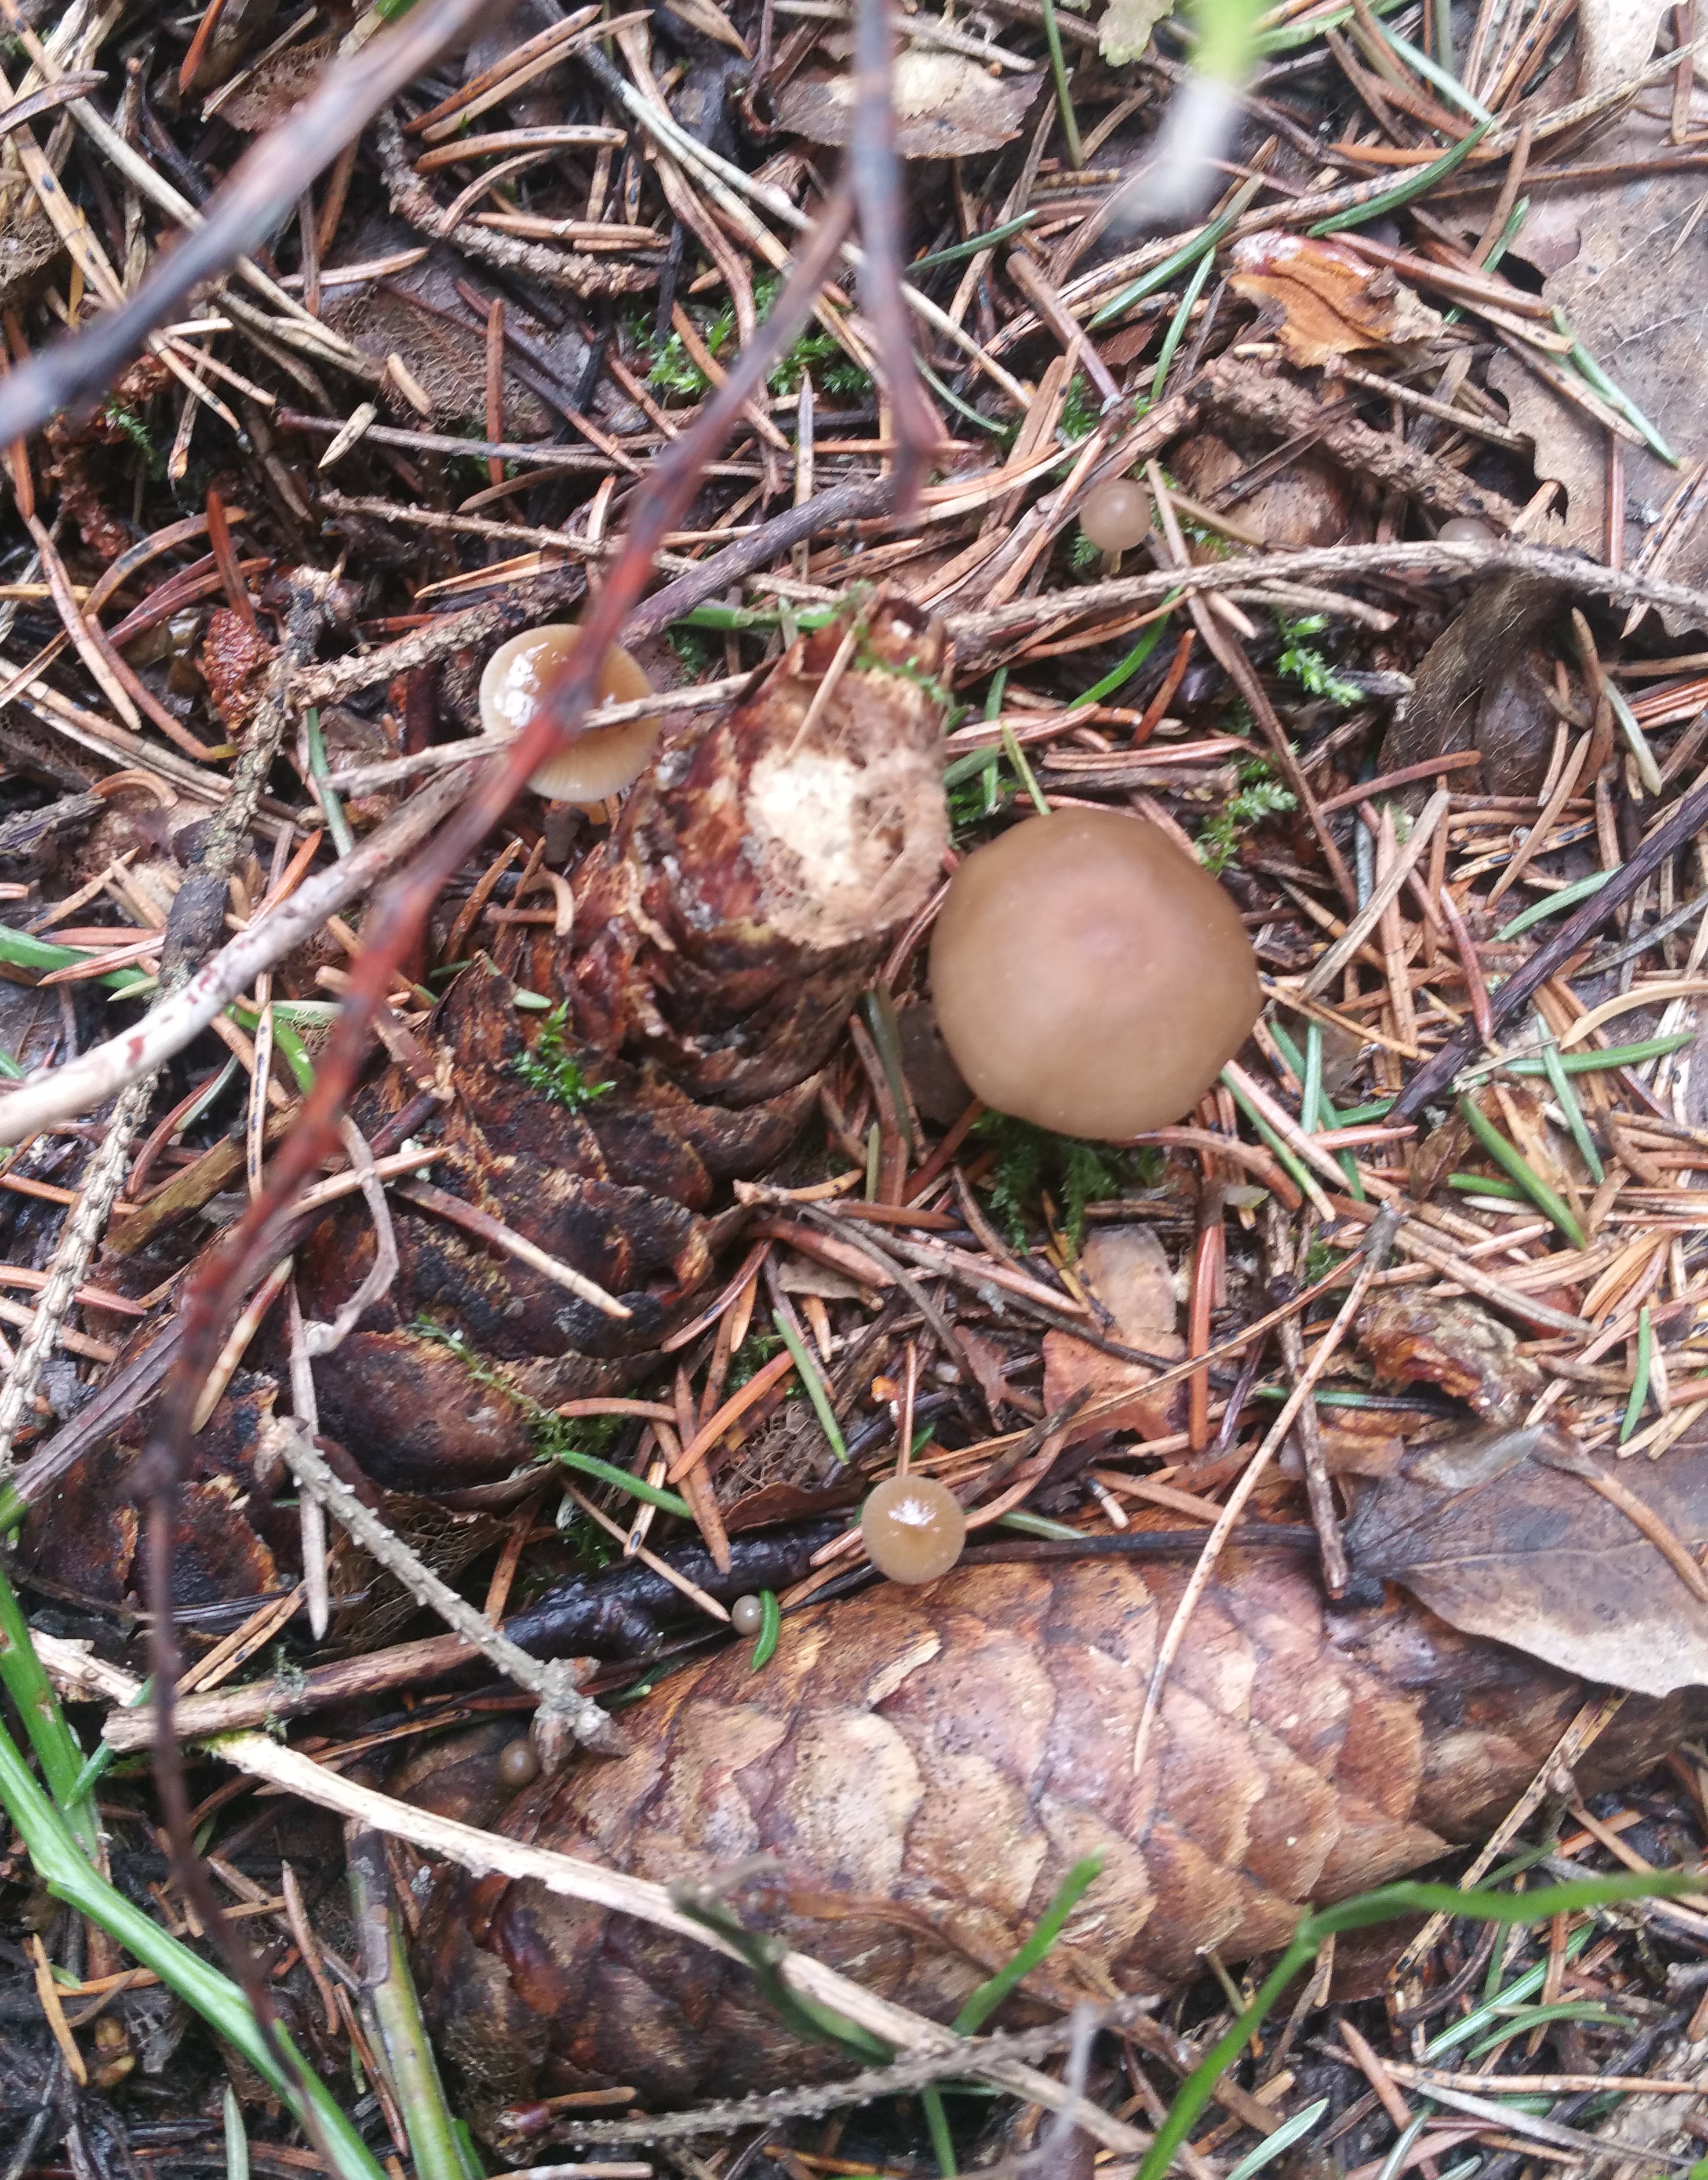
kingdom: Fungi
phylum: Basidiomycota
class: Agaricomycetes
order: Agaricales
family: Physalacriaceae
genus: Strobilurus
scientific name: Strobilurus esculentus
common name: Sprucecone cap
